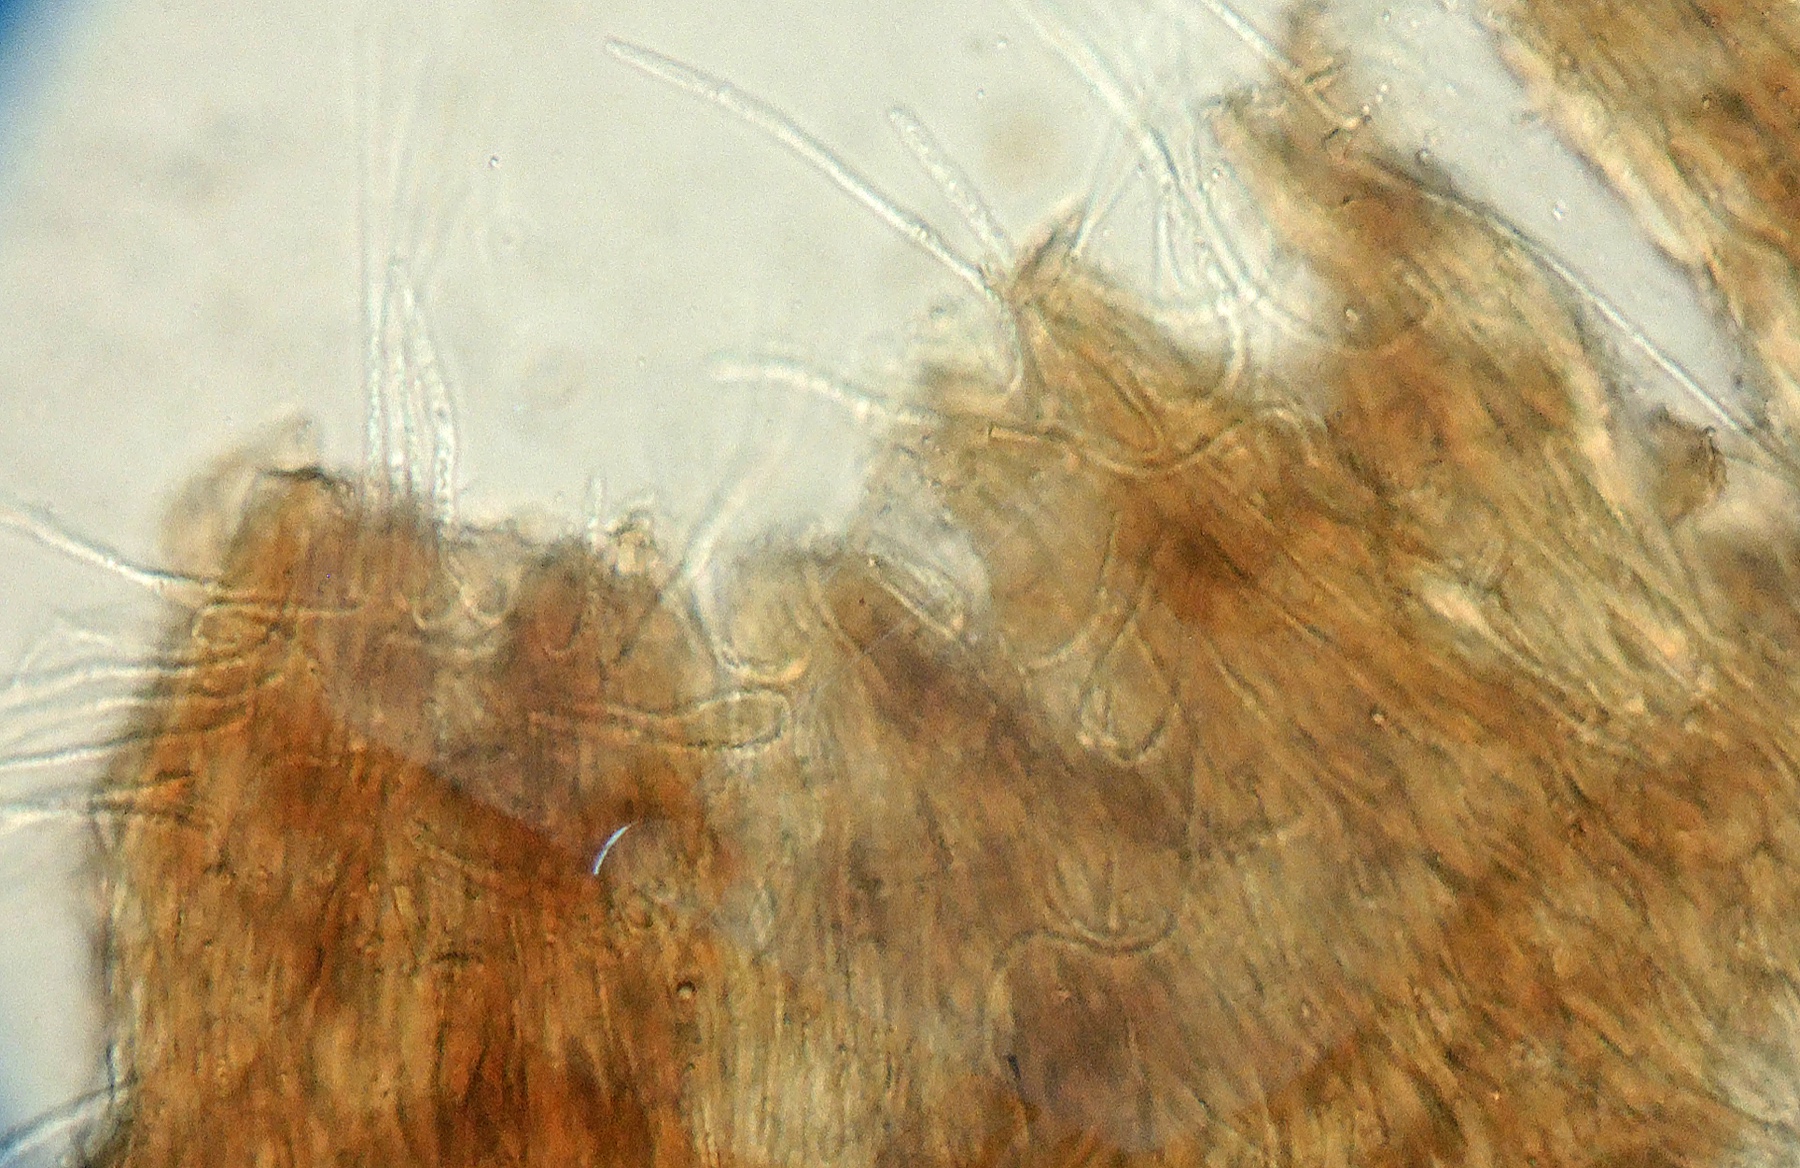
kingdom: Fungi
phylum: Ascomycota
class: Leotiomycetes
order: Helotiales
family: Gelatinodiscaceae
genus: Phaeangellina
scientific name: Phaeangellina empetri
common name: revlingskive
